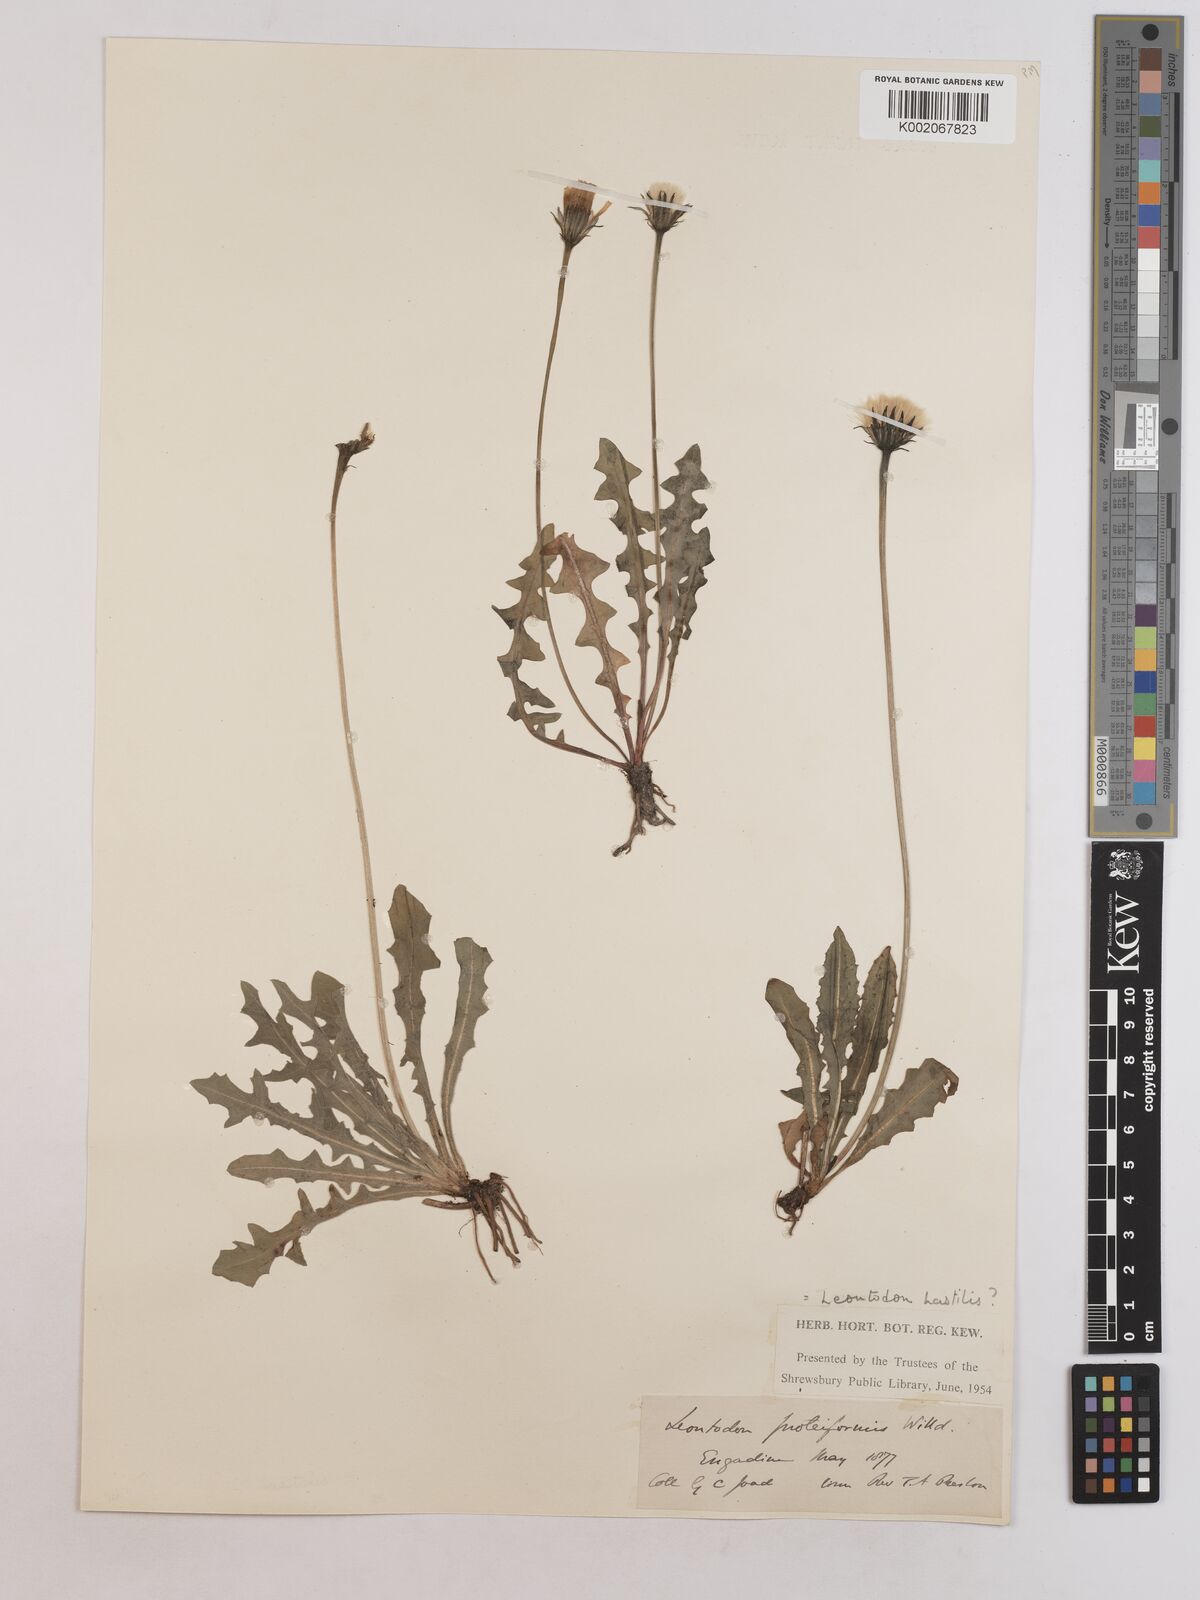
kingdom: Plantae
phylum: Tracheophyta
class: Magnoliopsida
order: Asterales
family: Asteraceae
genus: Leontodon
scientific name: Leontodon hispidus
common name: Rough hawkbit
